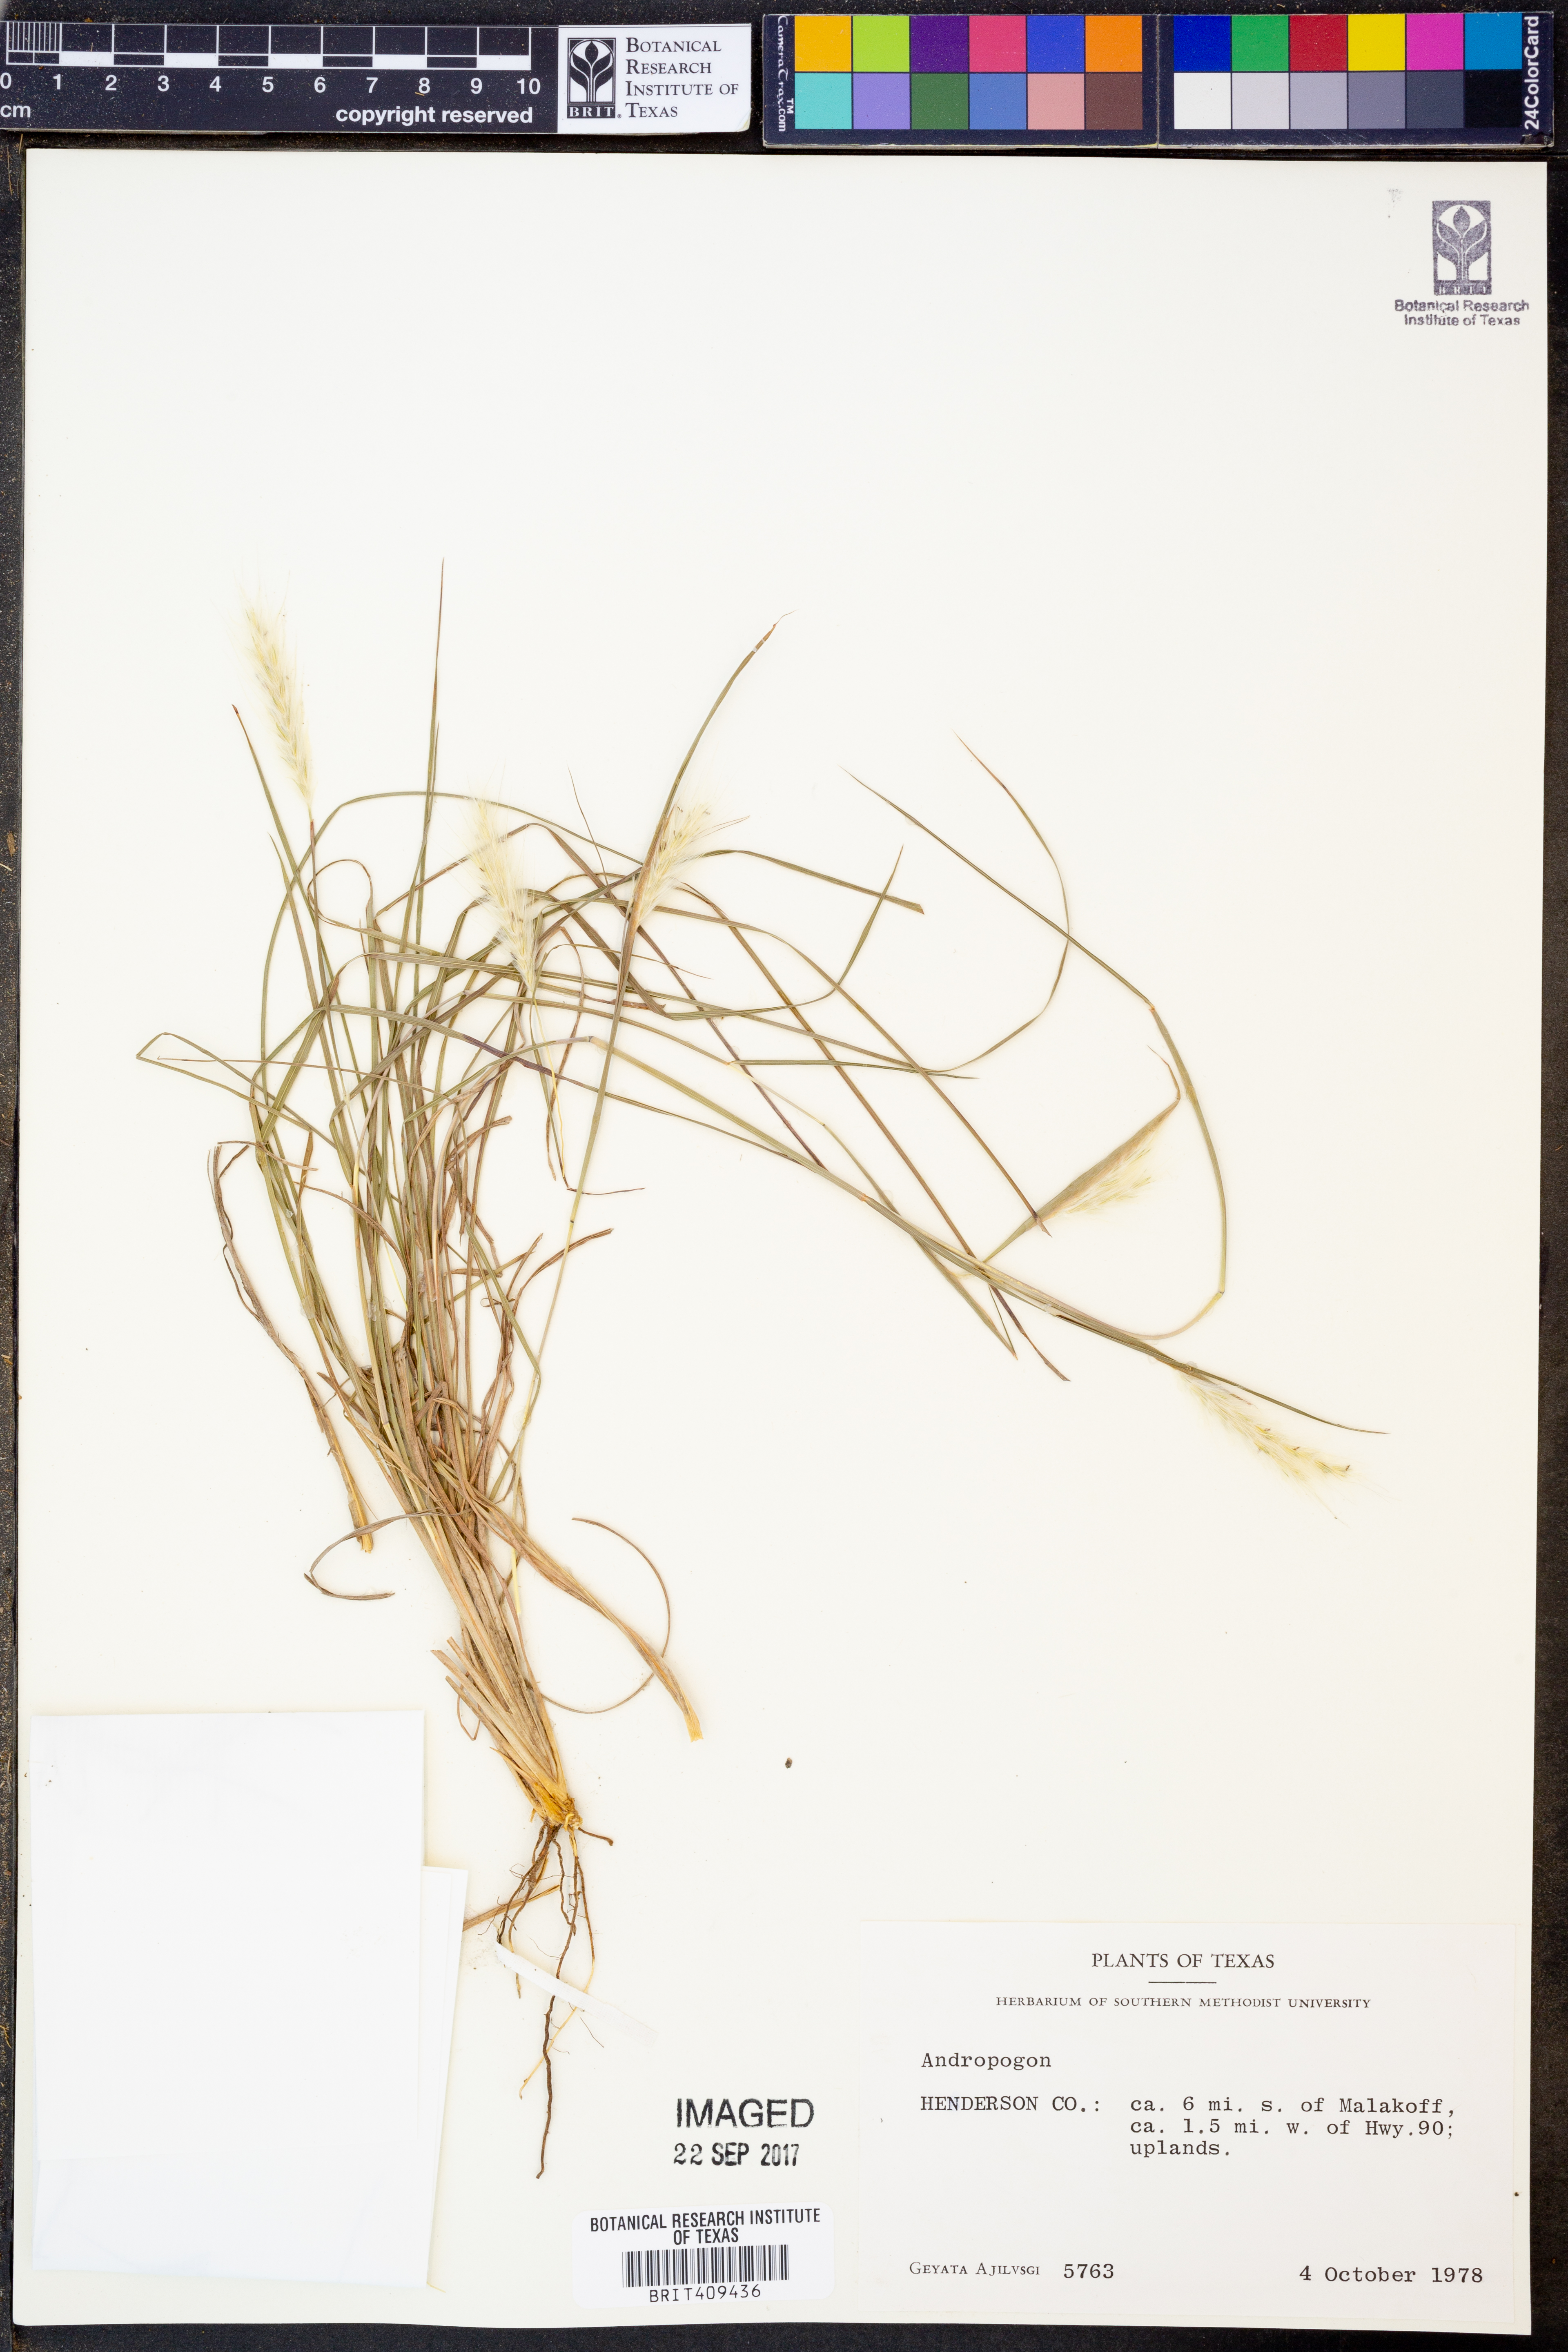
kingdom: Plantae
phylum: Tracheophyta
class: Liliopsida
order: Poales
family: Poaceae
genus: Andropogon
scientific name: Andropogon
